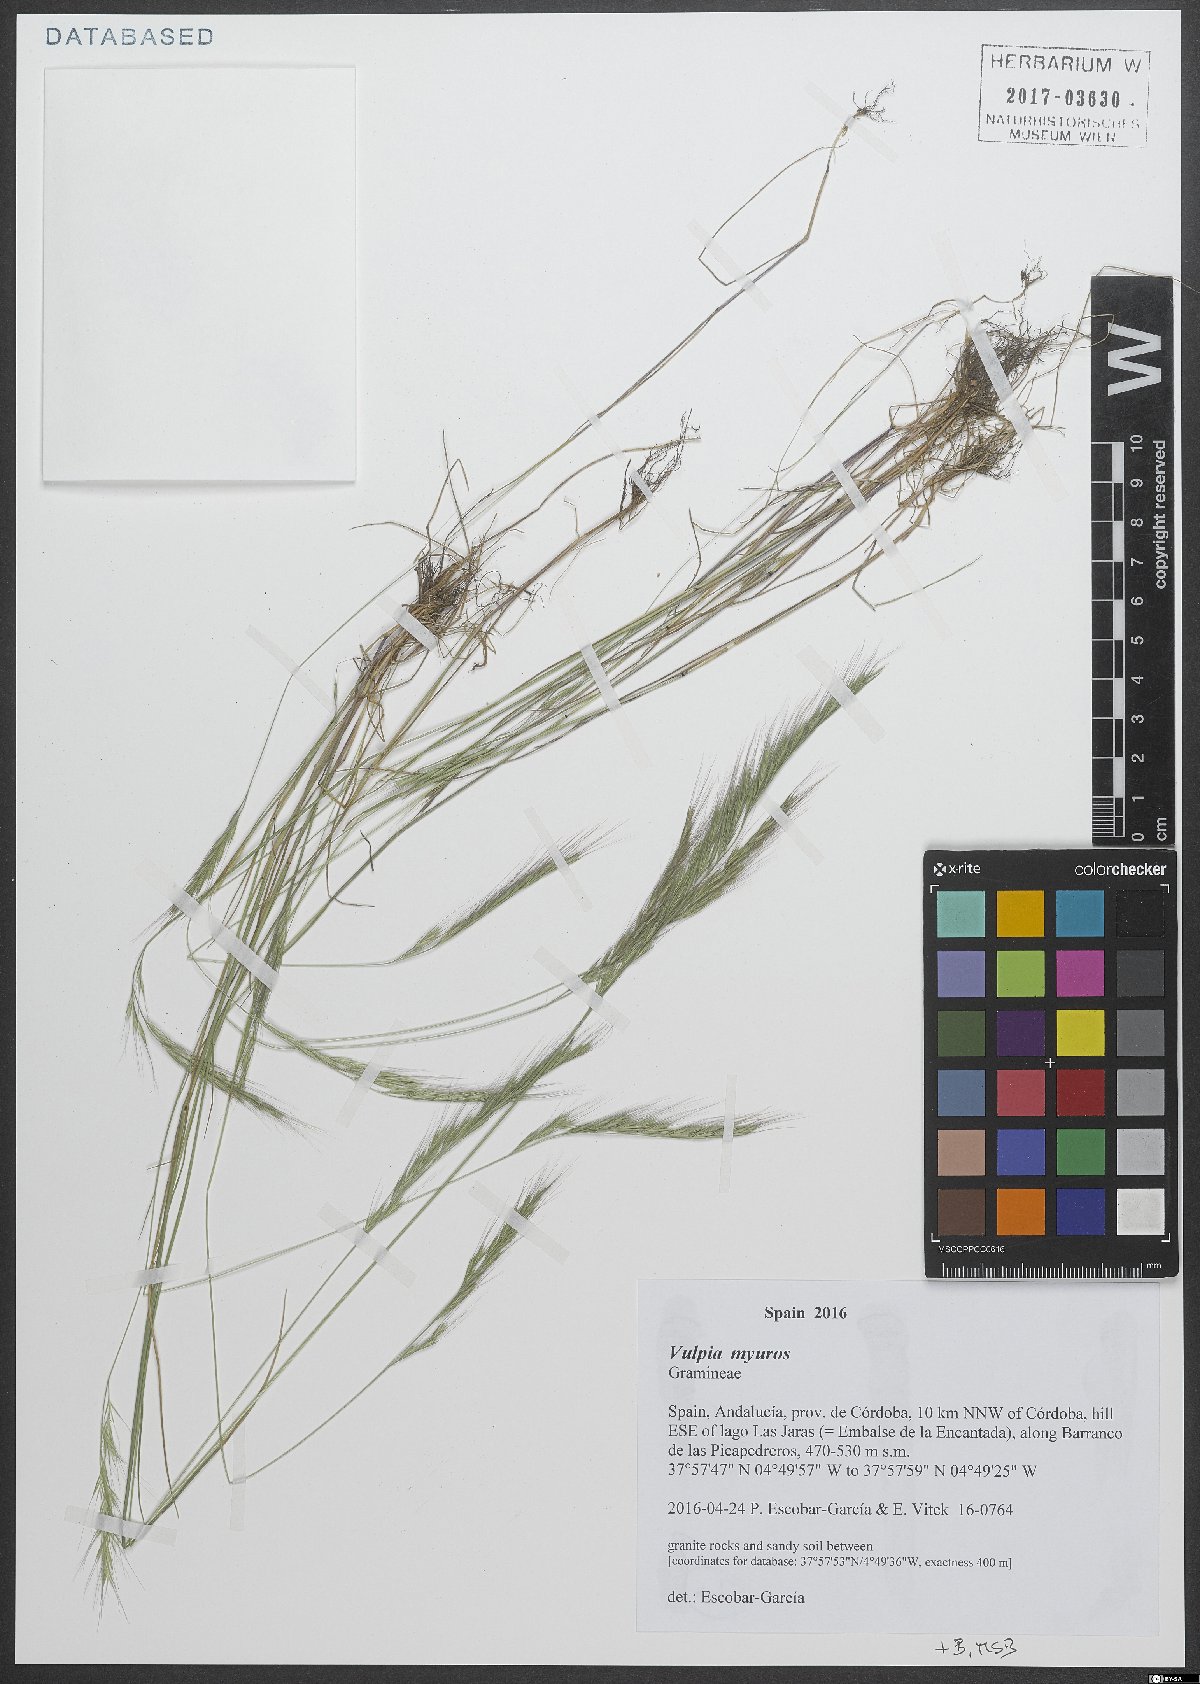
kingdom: Plantae
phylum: Tracheophyta
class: Liliopsida
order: Poales
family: Poaceae
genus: Festuca
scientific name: Festuca myuros
